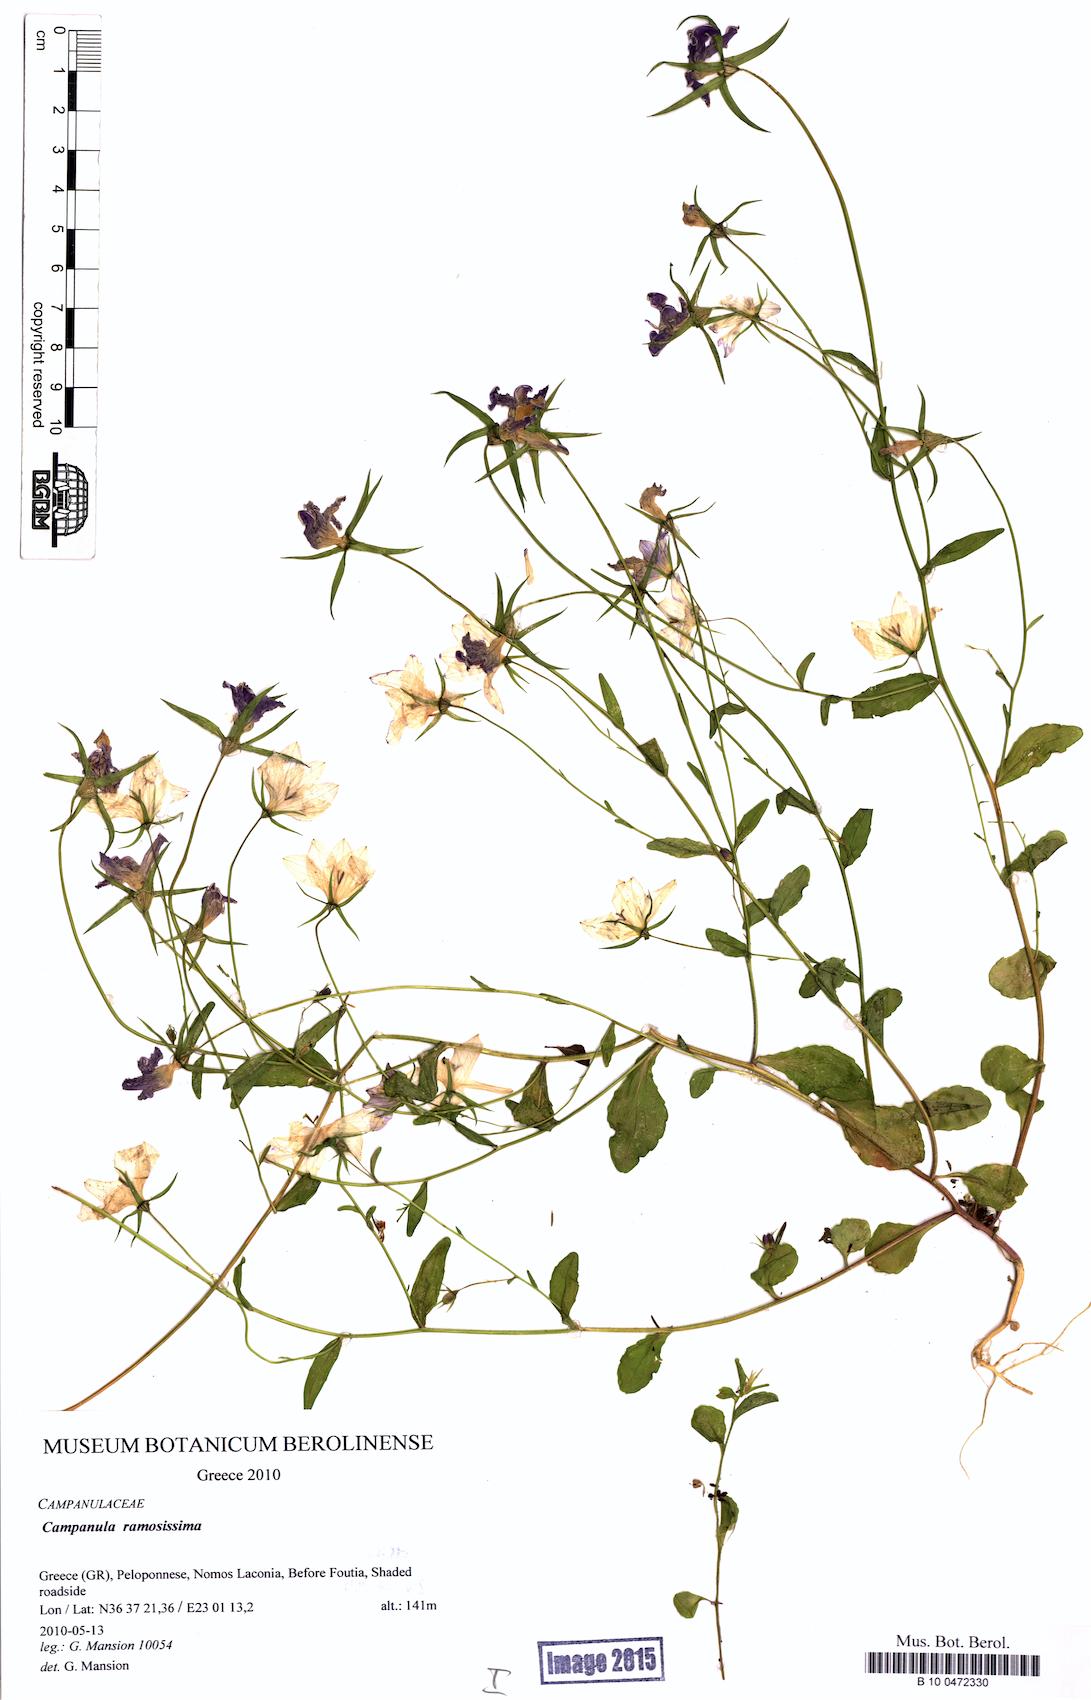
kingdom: Plantae
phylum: Tracheophyta
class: Magnoliopsida
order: Asterales
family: Campanulaceae
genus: Campanula
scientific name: Campanula ramosissima
